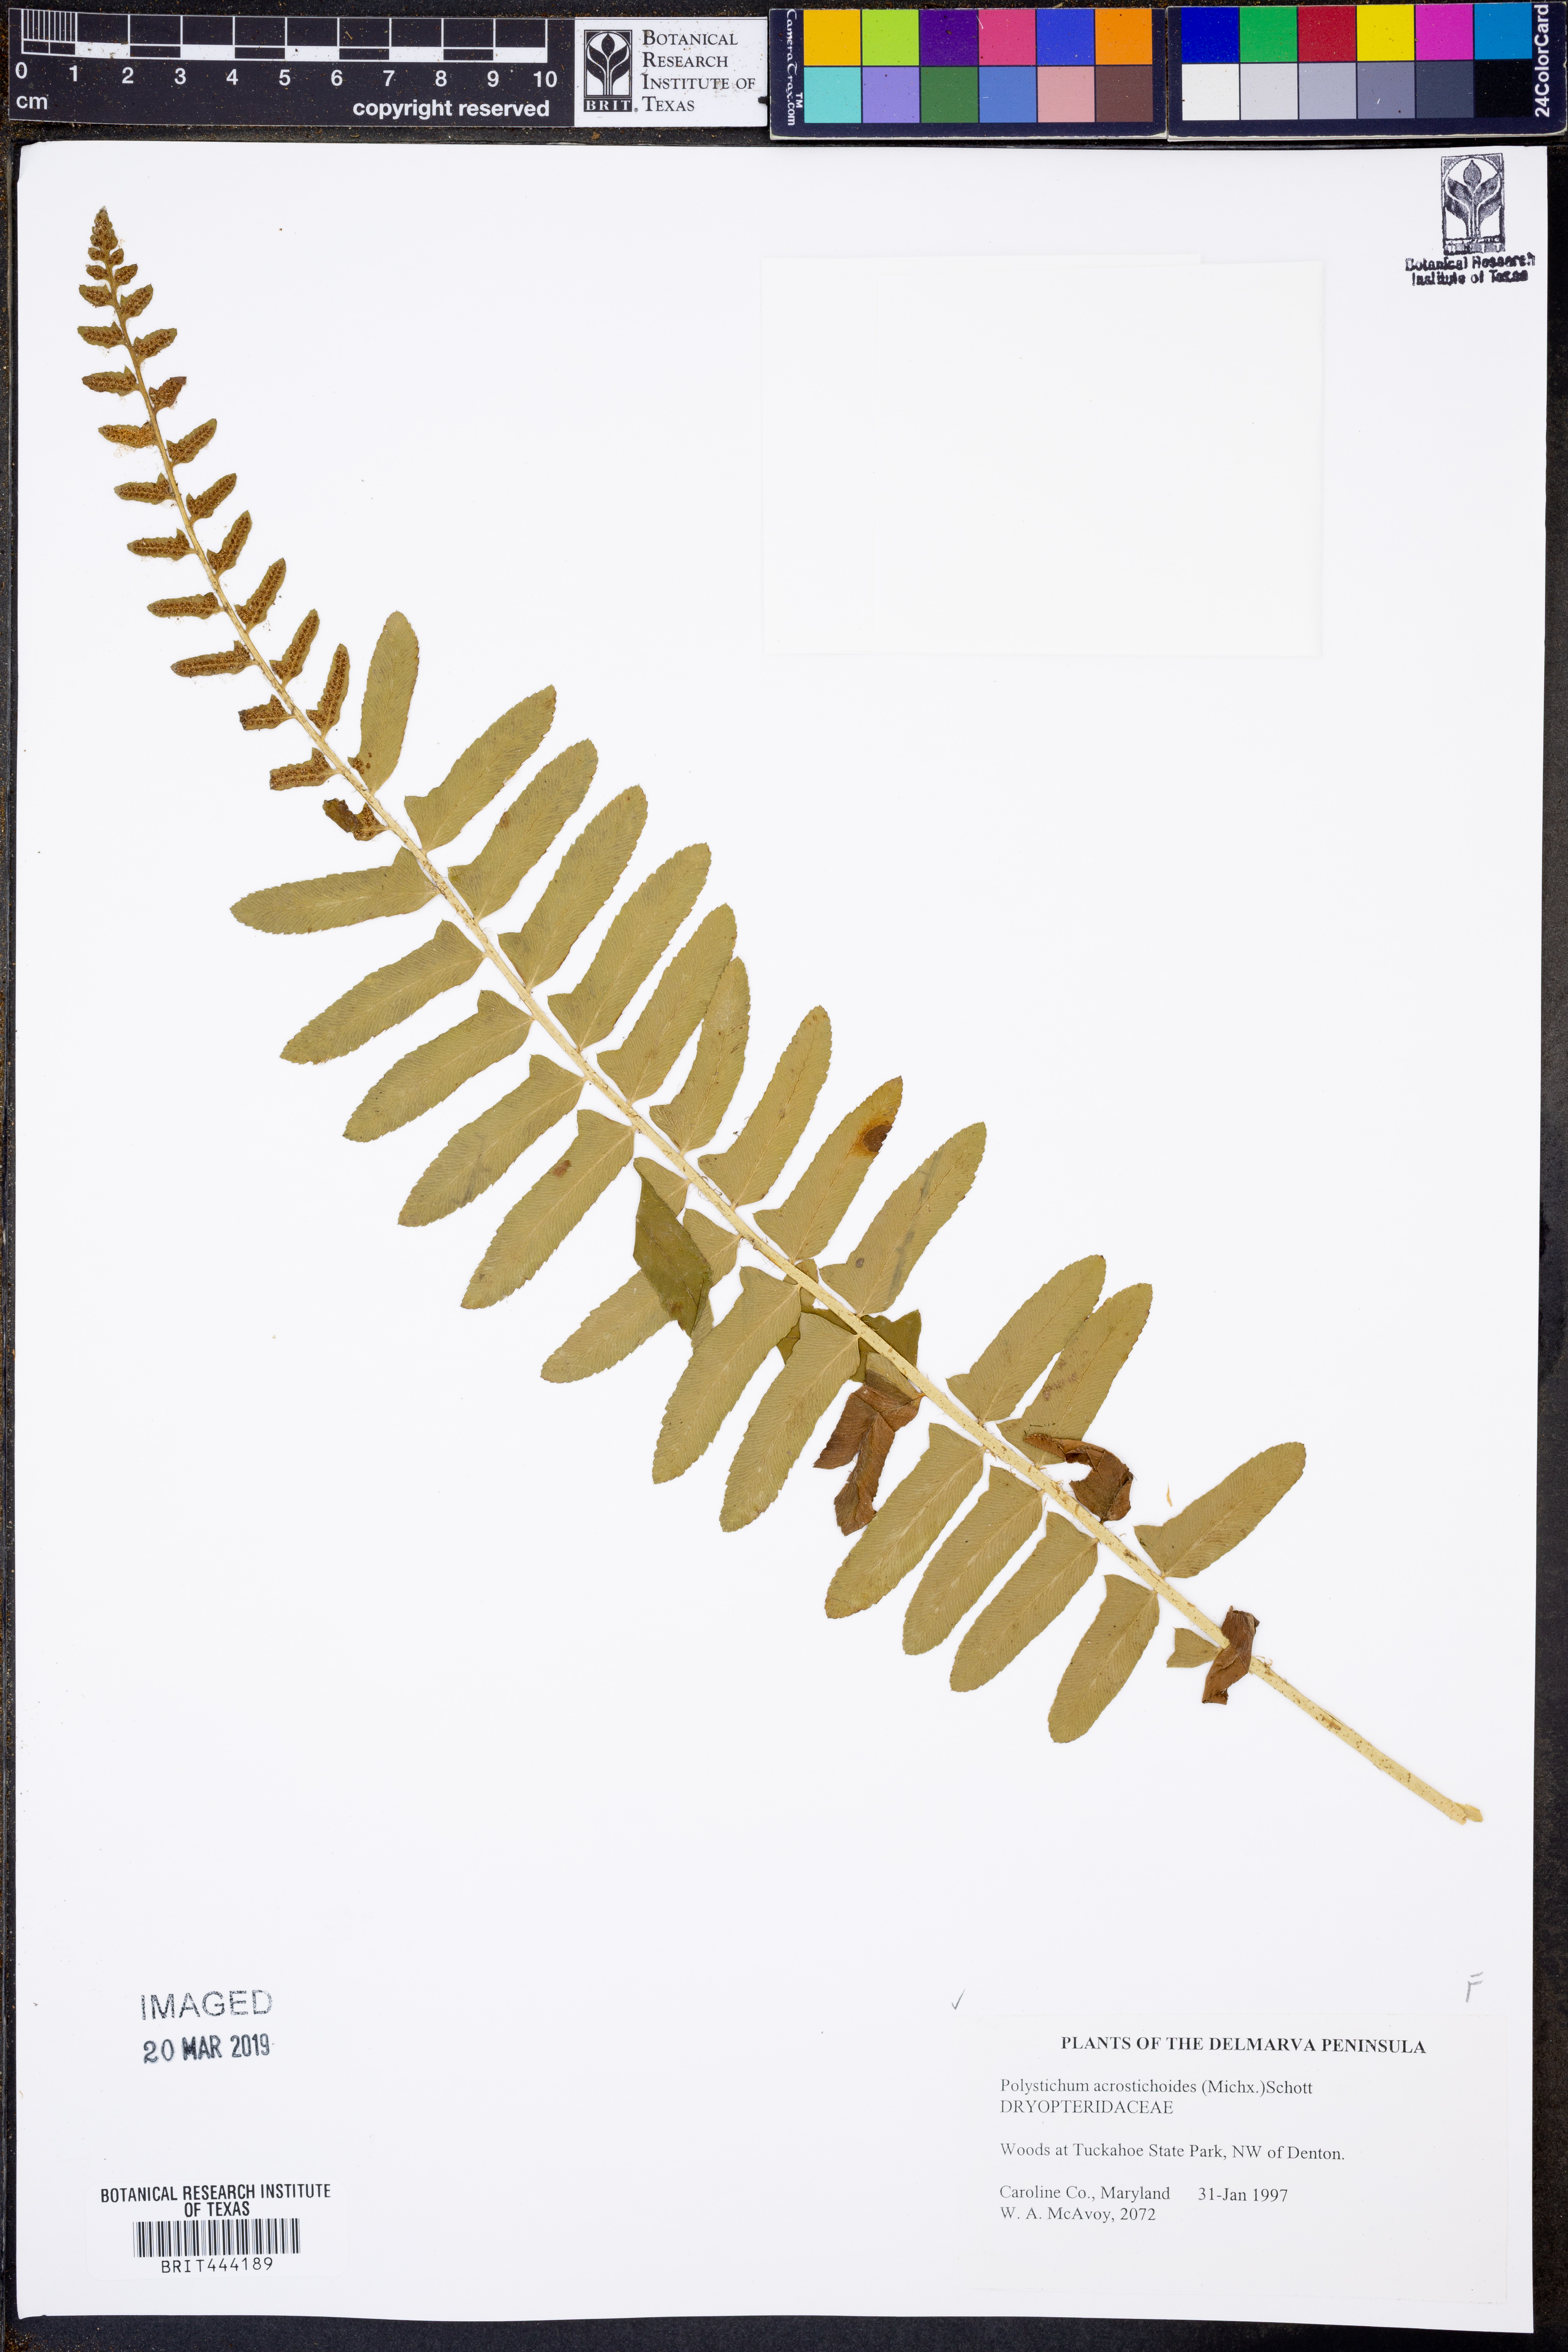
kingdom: Plantae
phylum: Tracheophyta
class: Polypodiopsida
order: Polypodiales
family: Dryopteridaceae
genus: Polystichum
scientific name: Polystichum acrostichoides
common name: Christmas fern
